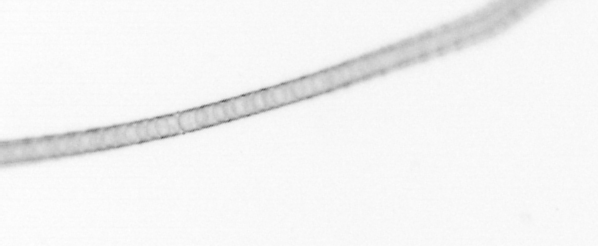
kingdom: Chromista
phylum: Ochrophyta
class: Bacillariophyceae
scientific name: Bacillariophyceae
